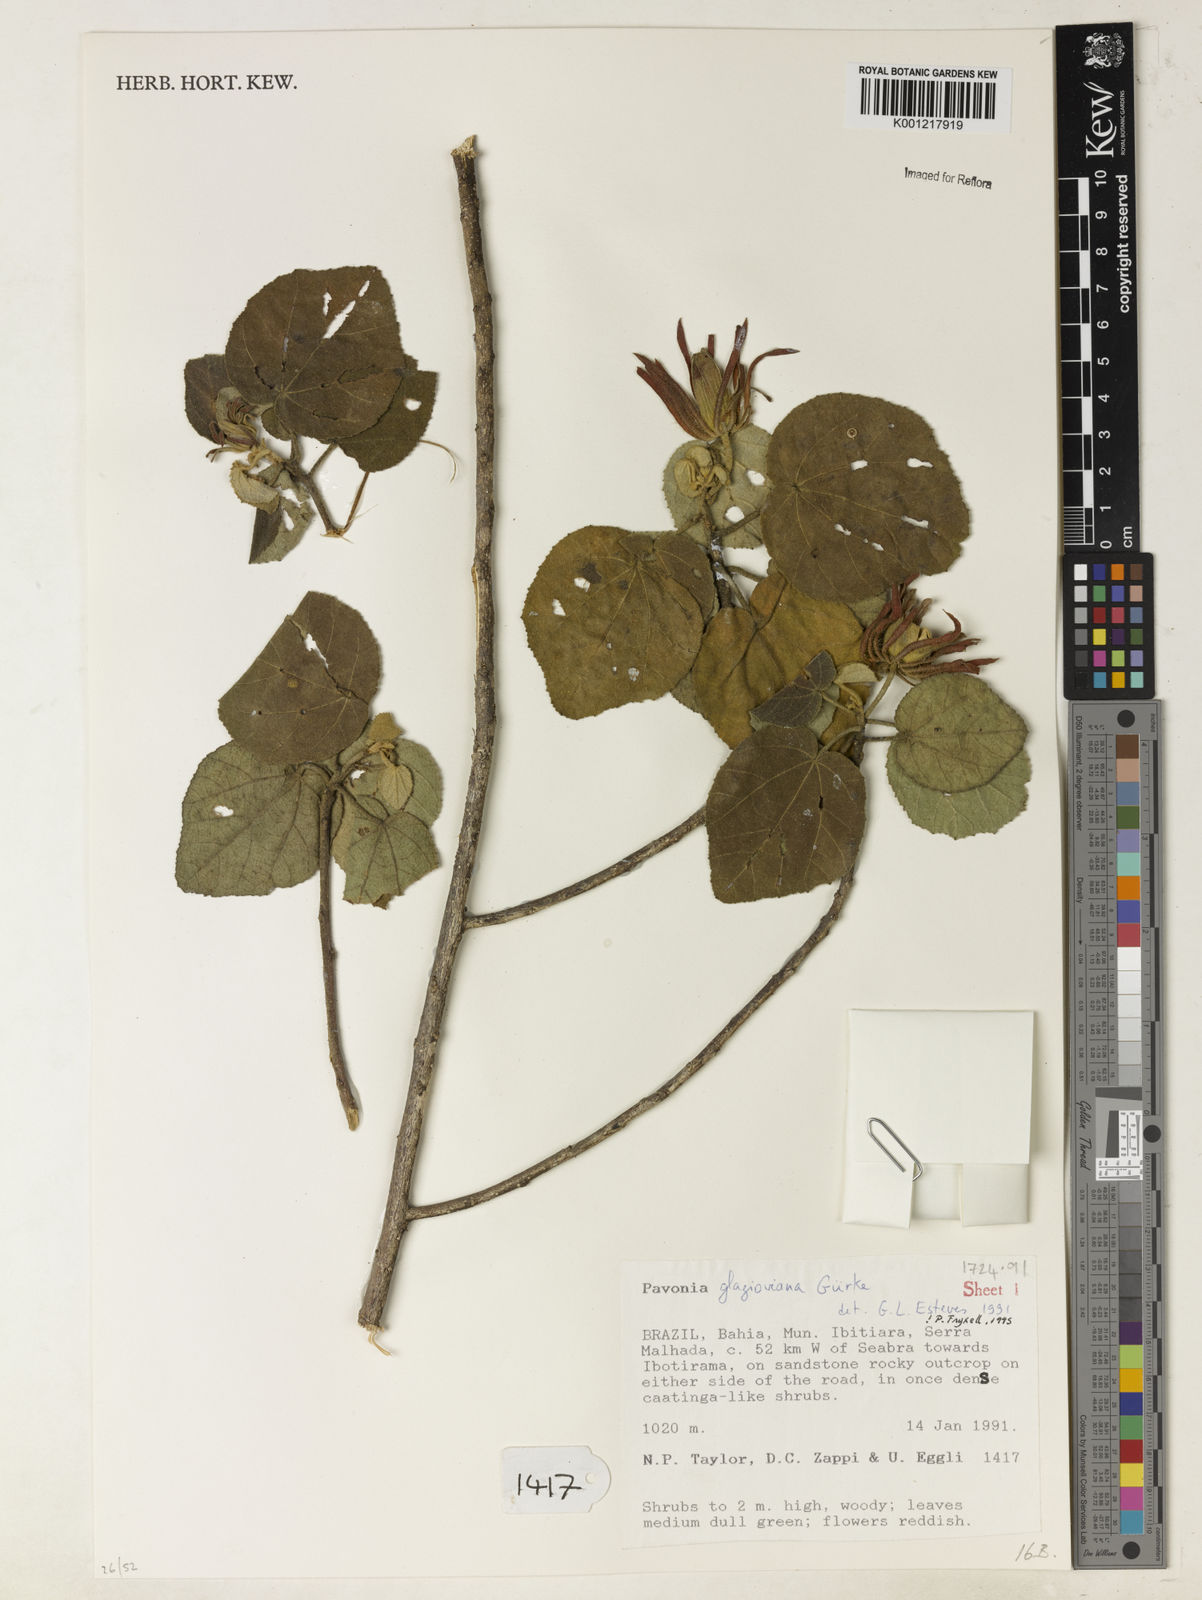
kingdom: Plantae
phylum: Tracheophyta
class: Magnoliopsida
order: Malvales
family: Malvaceae
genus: Pavonia
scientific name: Pavonia
